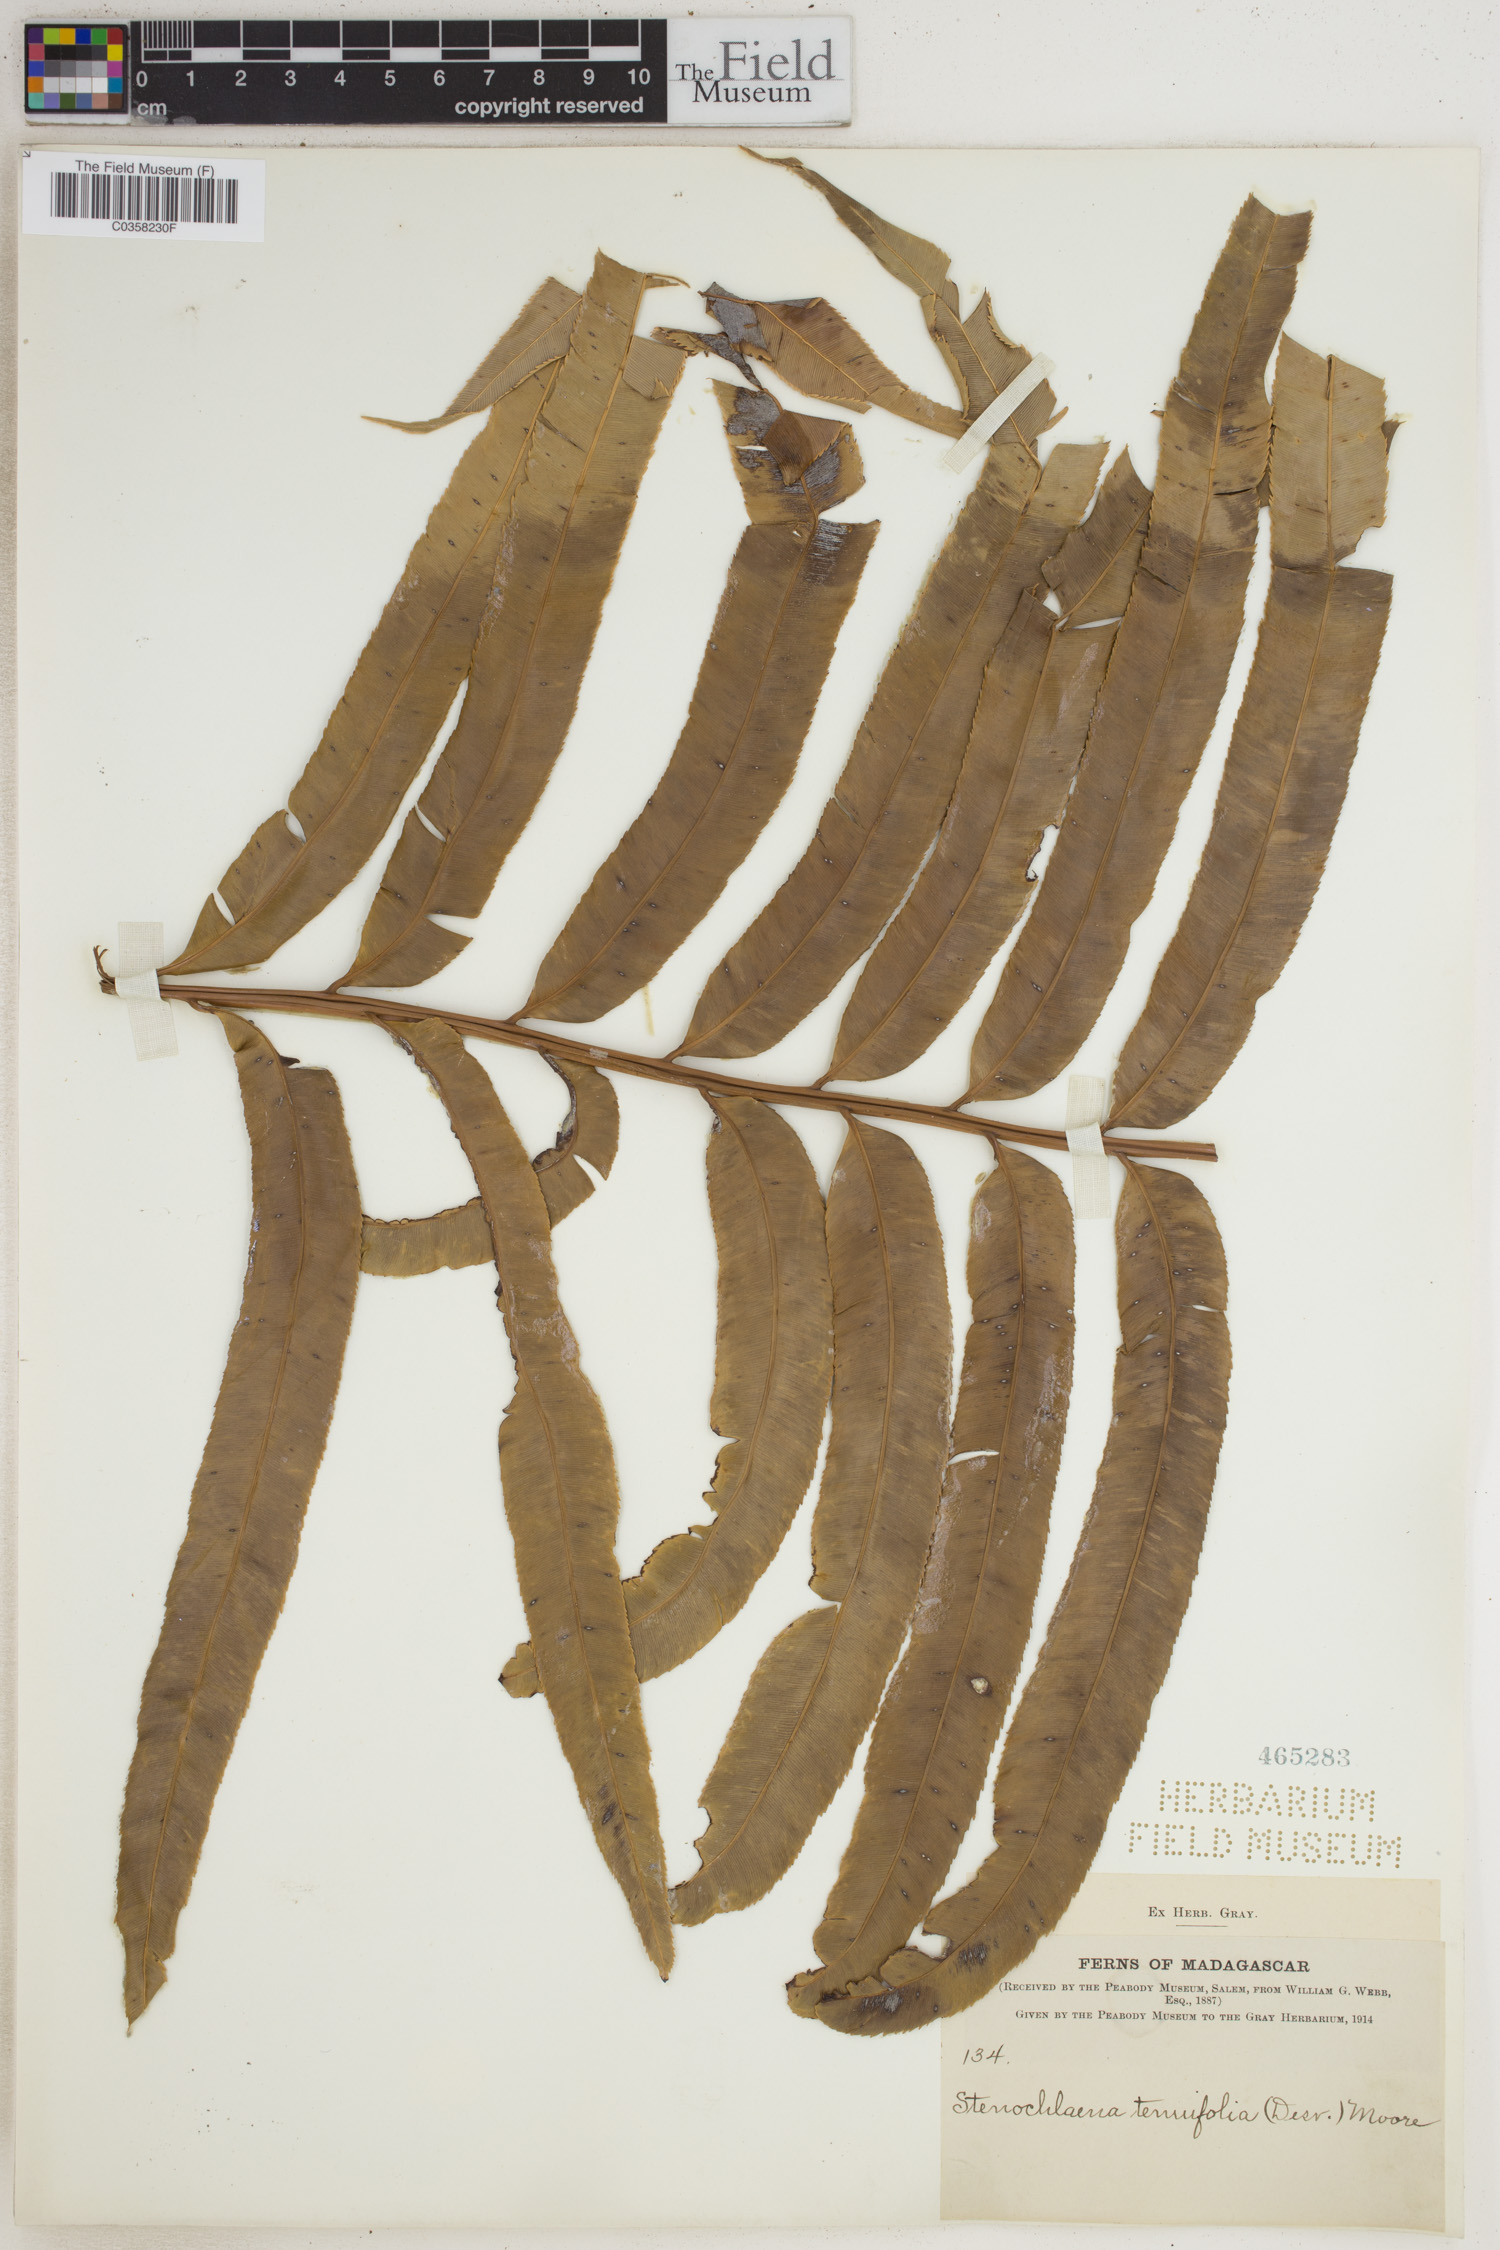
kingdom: Plantae
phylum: Tracheophyta
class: Polypodiopsida
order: Polypodiales
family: Blechnaceae
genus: Stenochlaena
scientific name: Stenochlaena tenuifolia
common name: Giant vine fern
